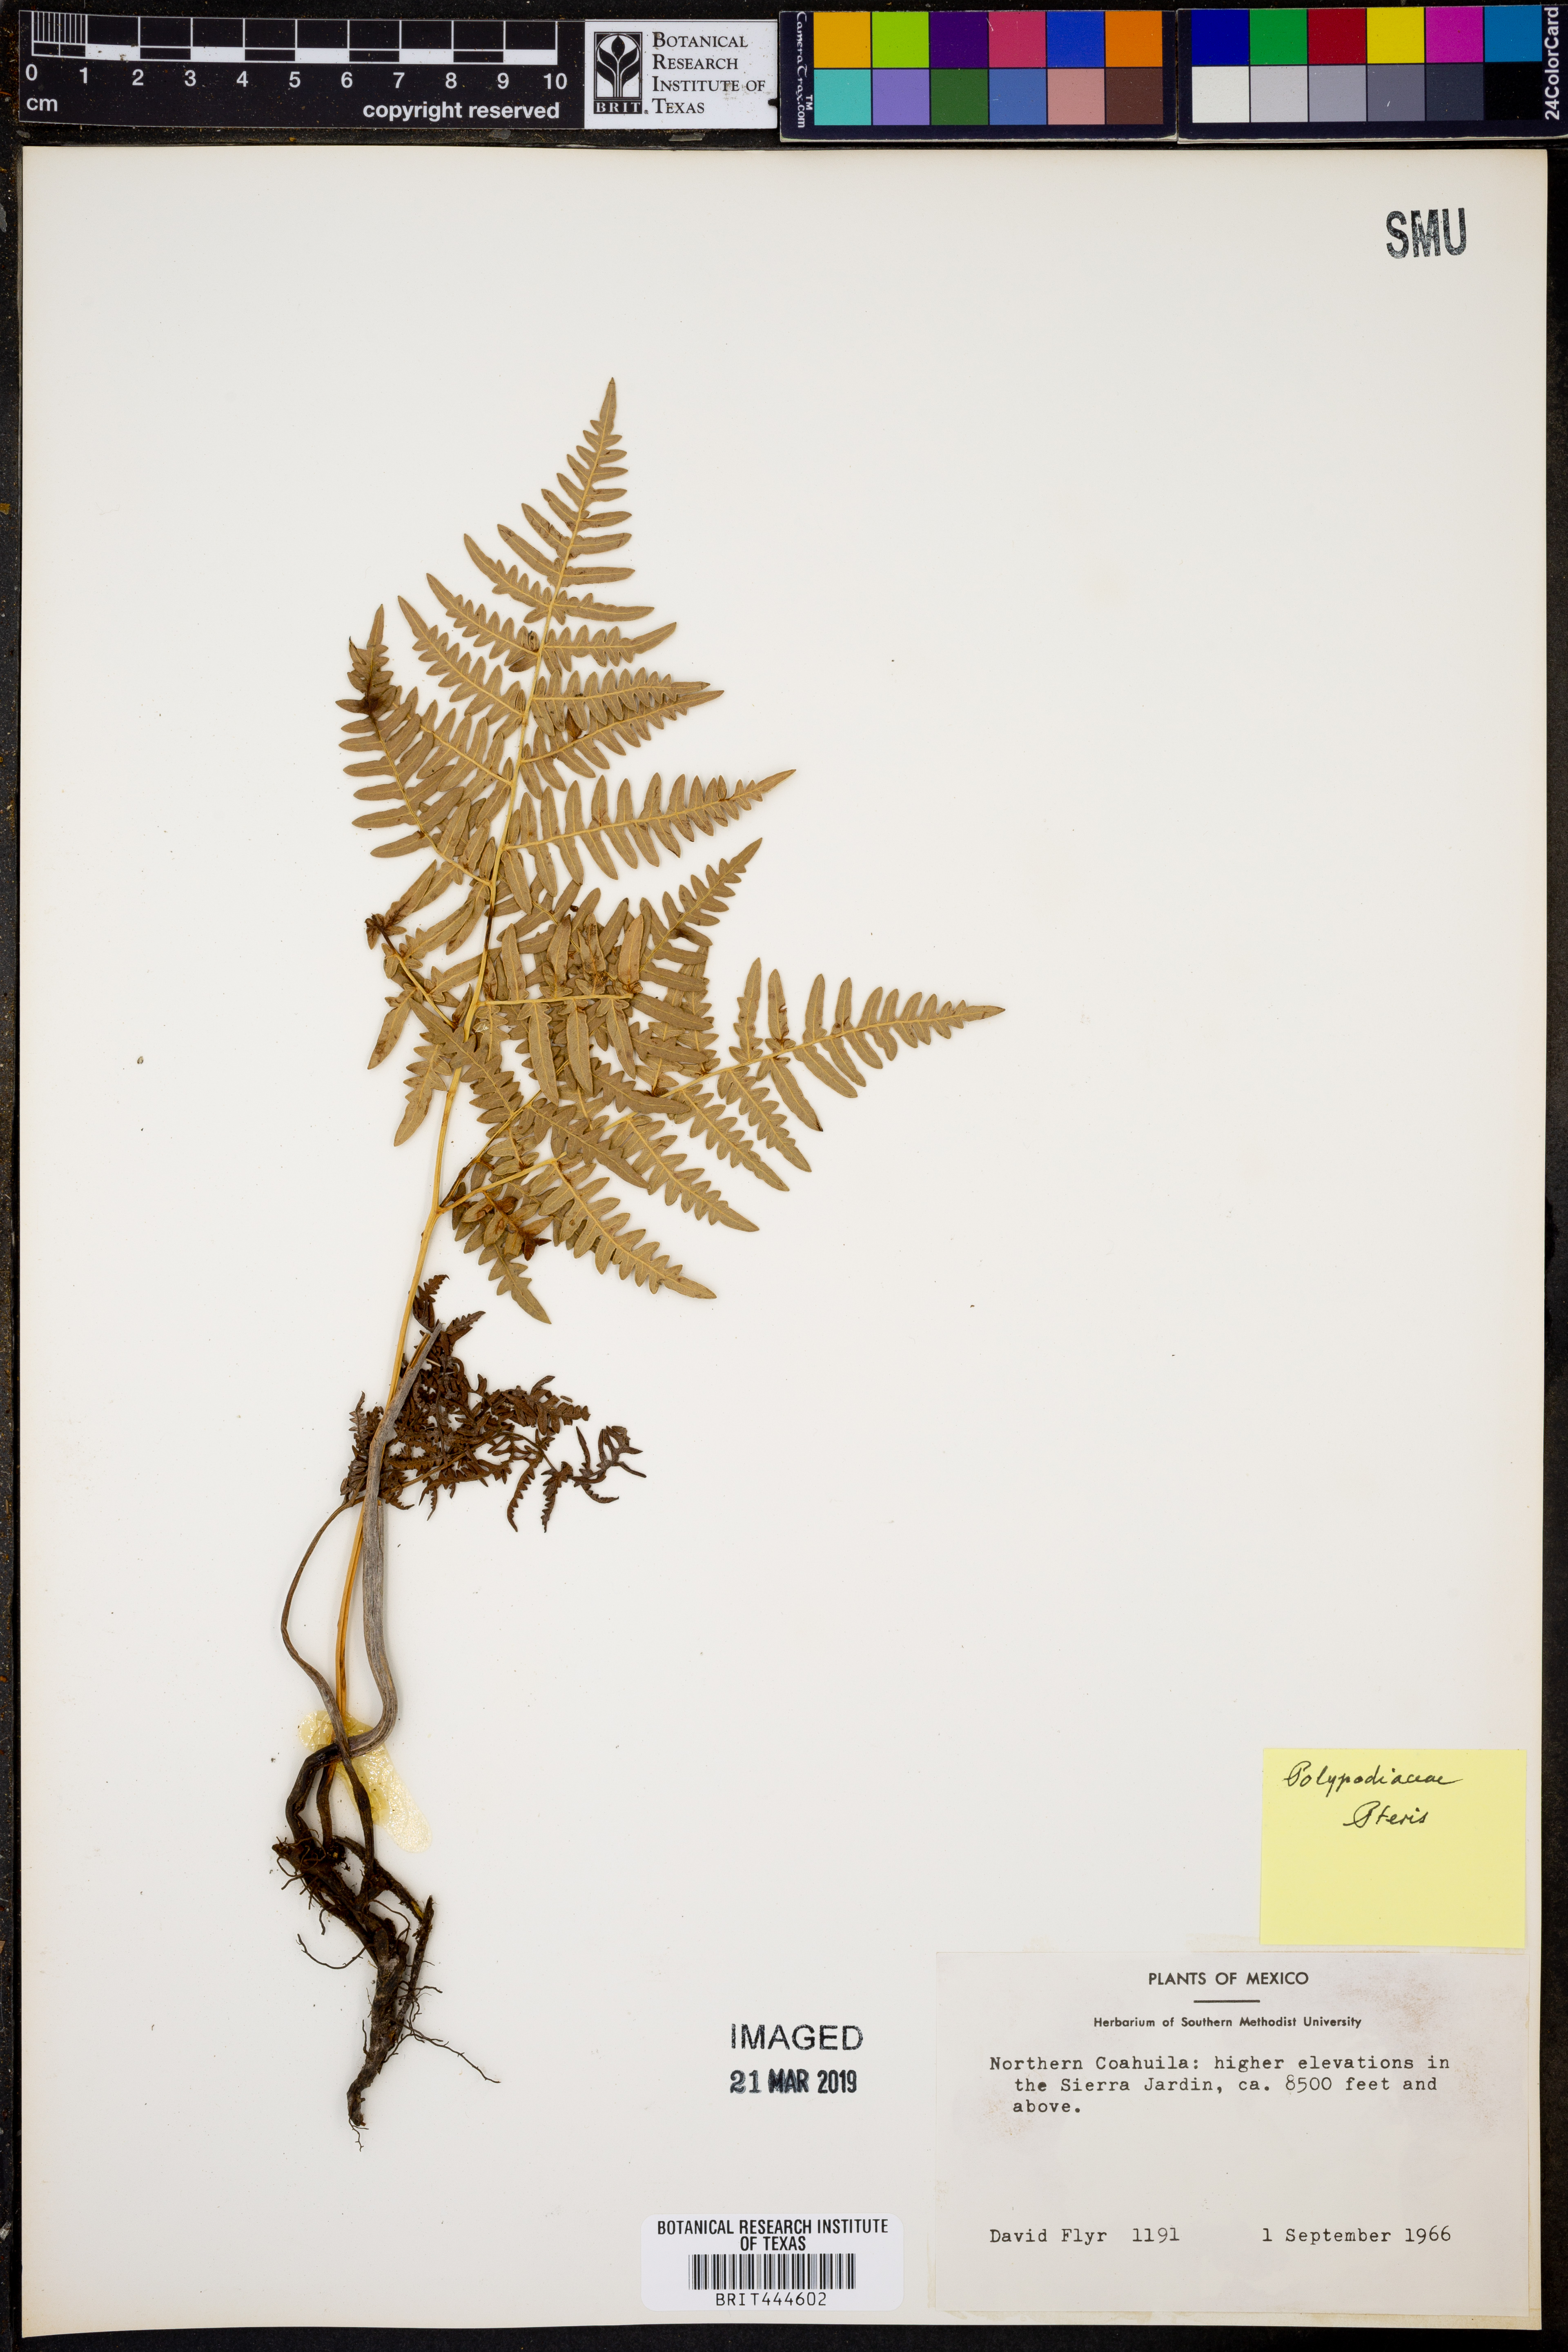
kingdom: Plantae
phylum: Tracheophyta
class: Polypodiopsida
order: Polypodiales
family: Pteridaceae
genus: Pteris
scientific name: Pteris
